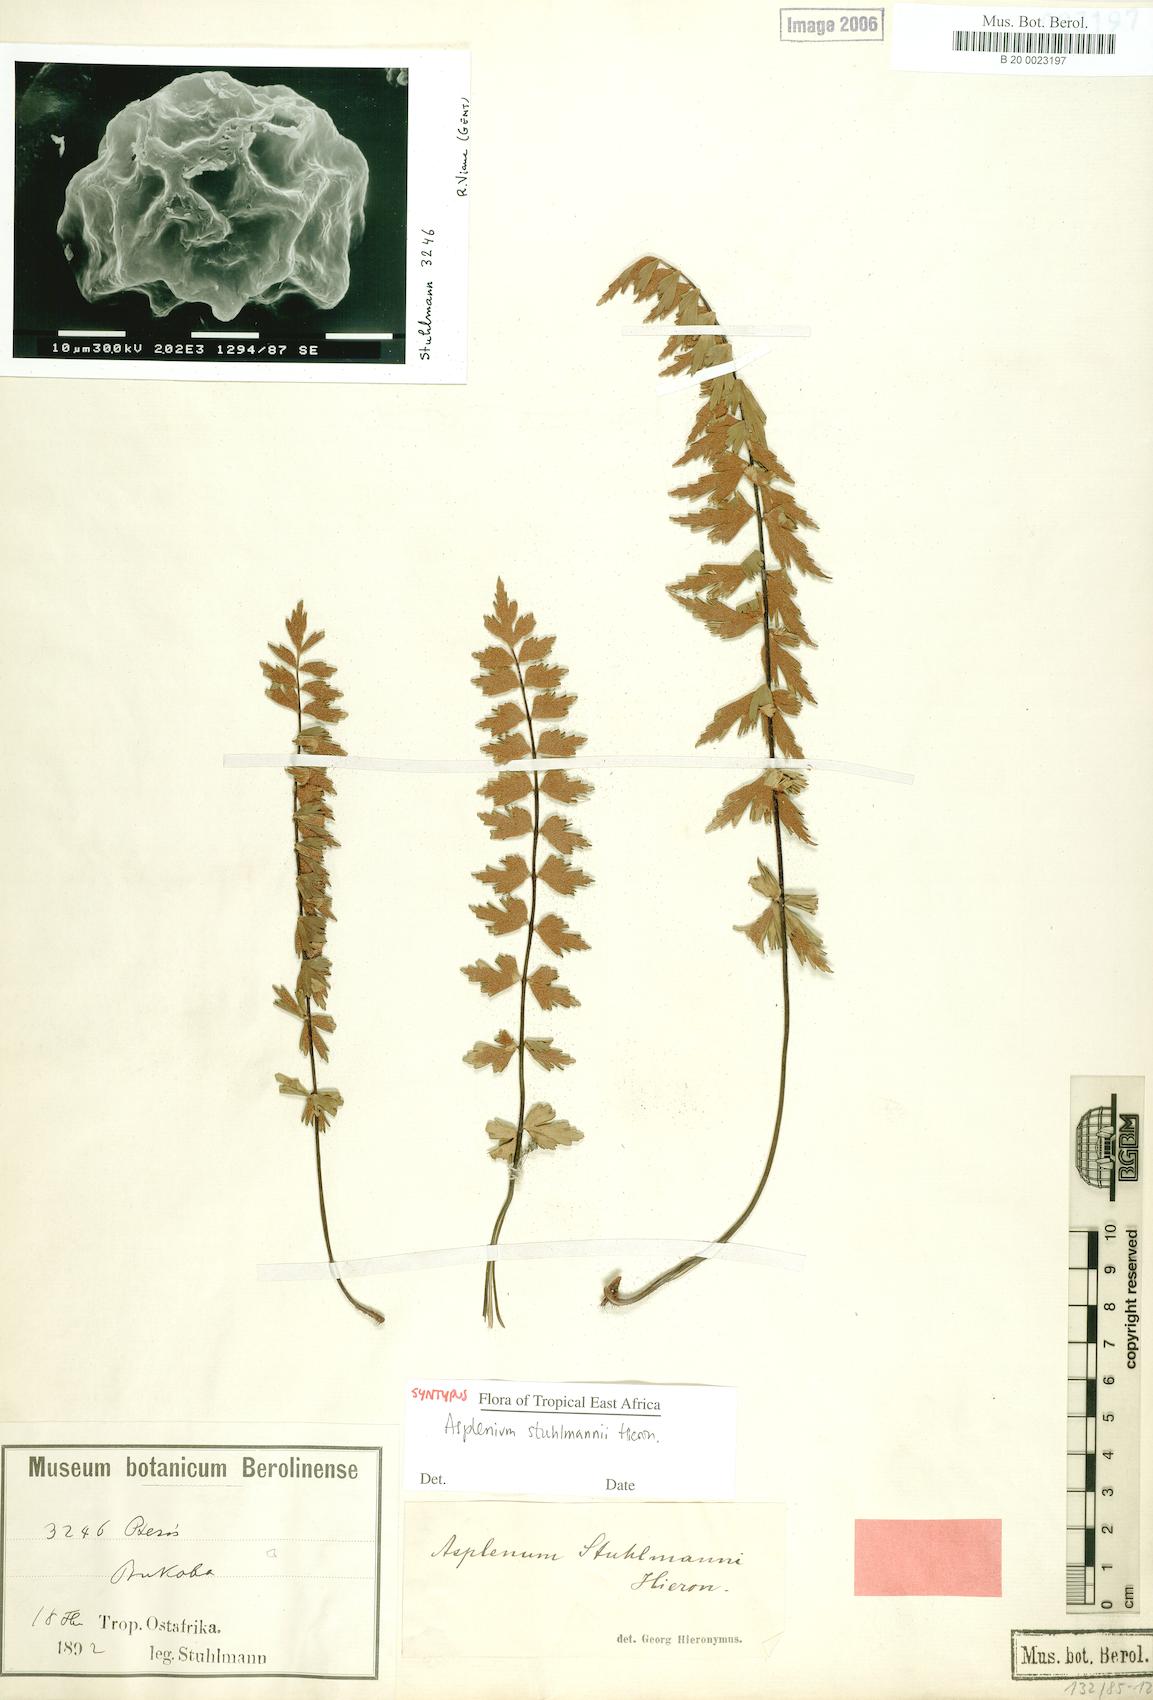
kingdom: Plantae
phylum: Tracheophyta
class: Polypodiopsida
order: Polypodiales
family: Aspleniaceae
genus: Asplenium
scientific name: Asplenium stuhlmannii
